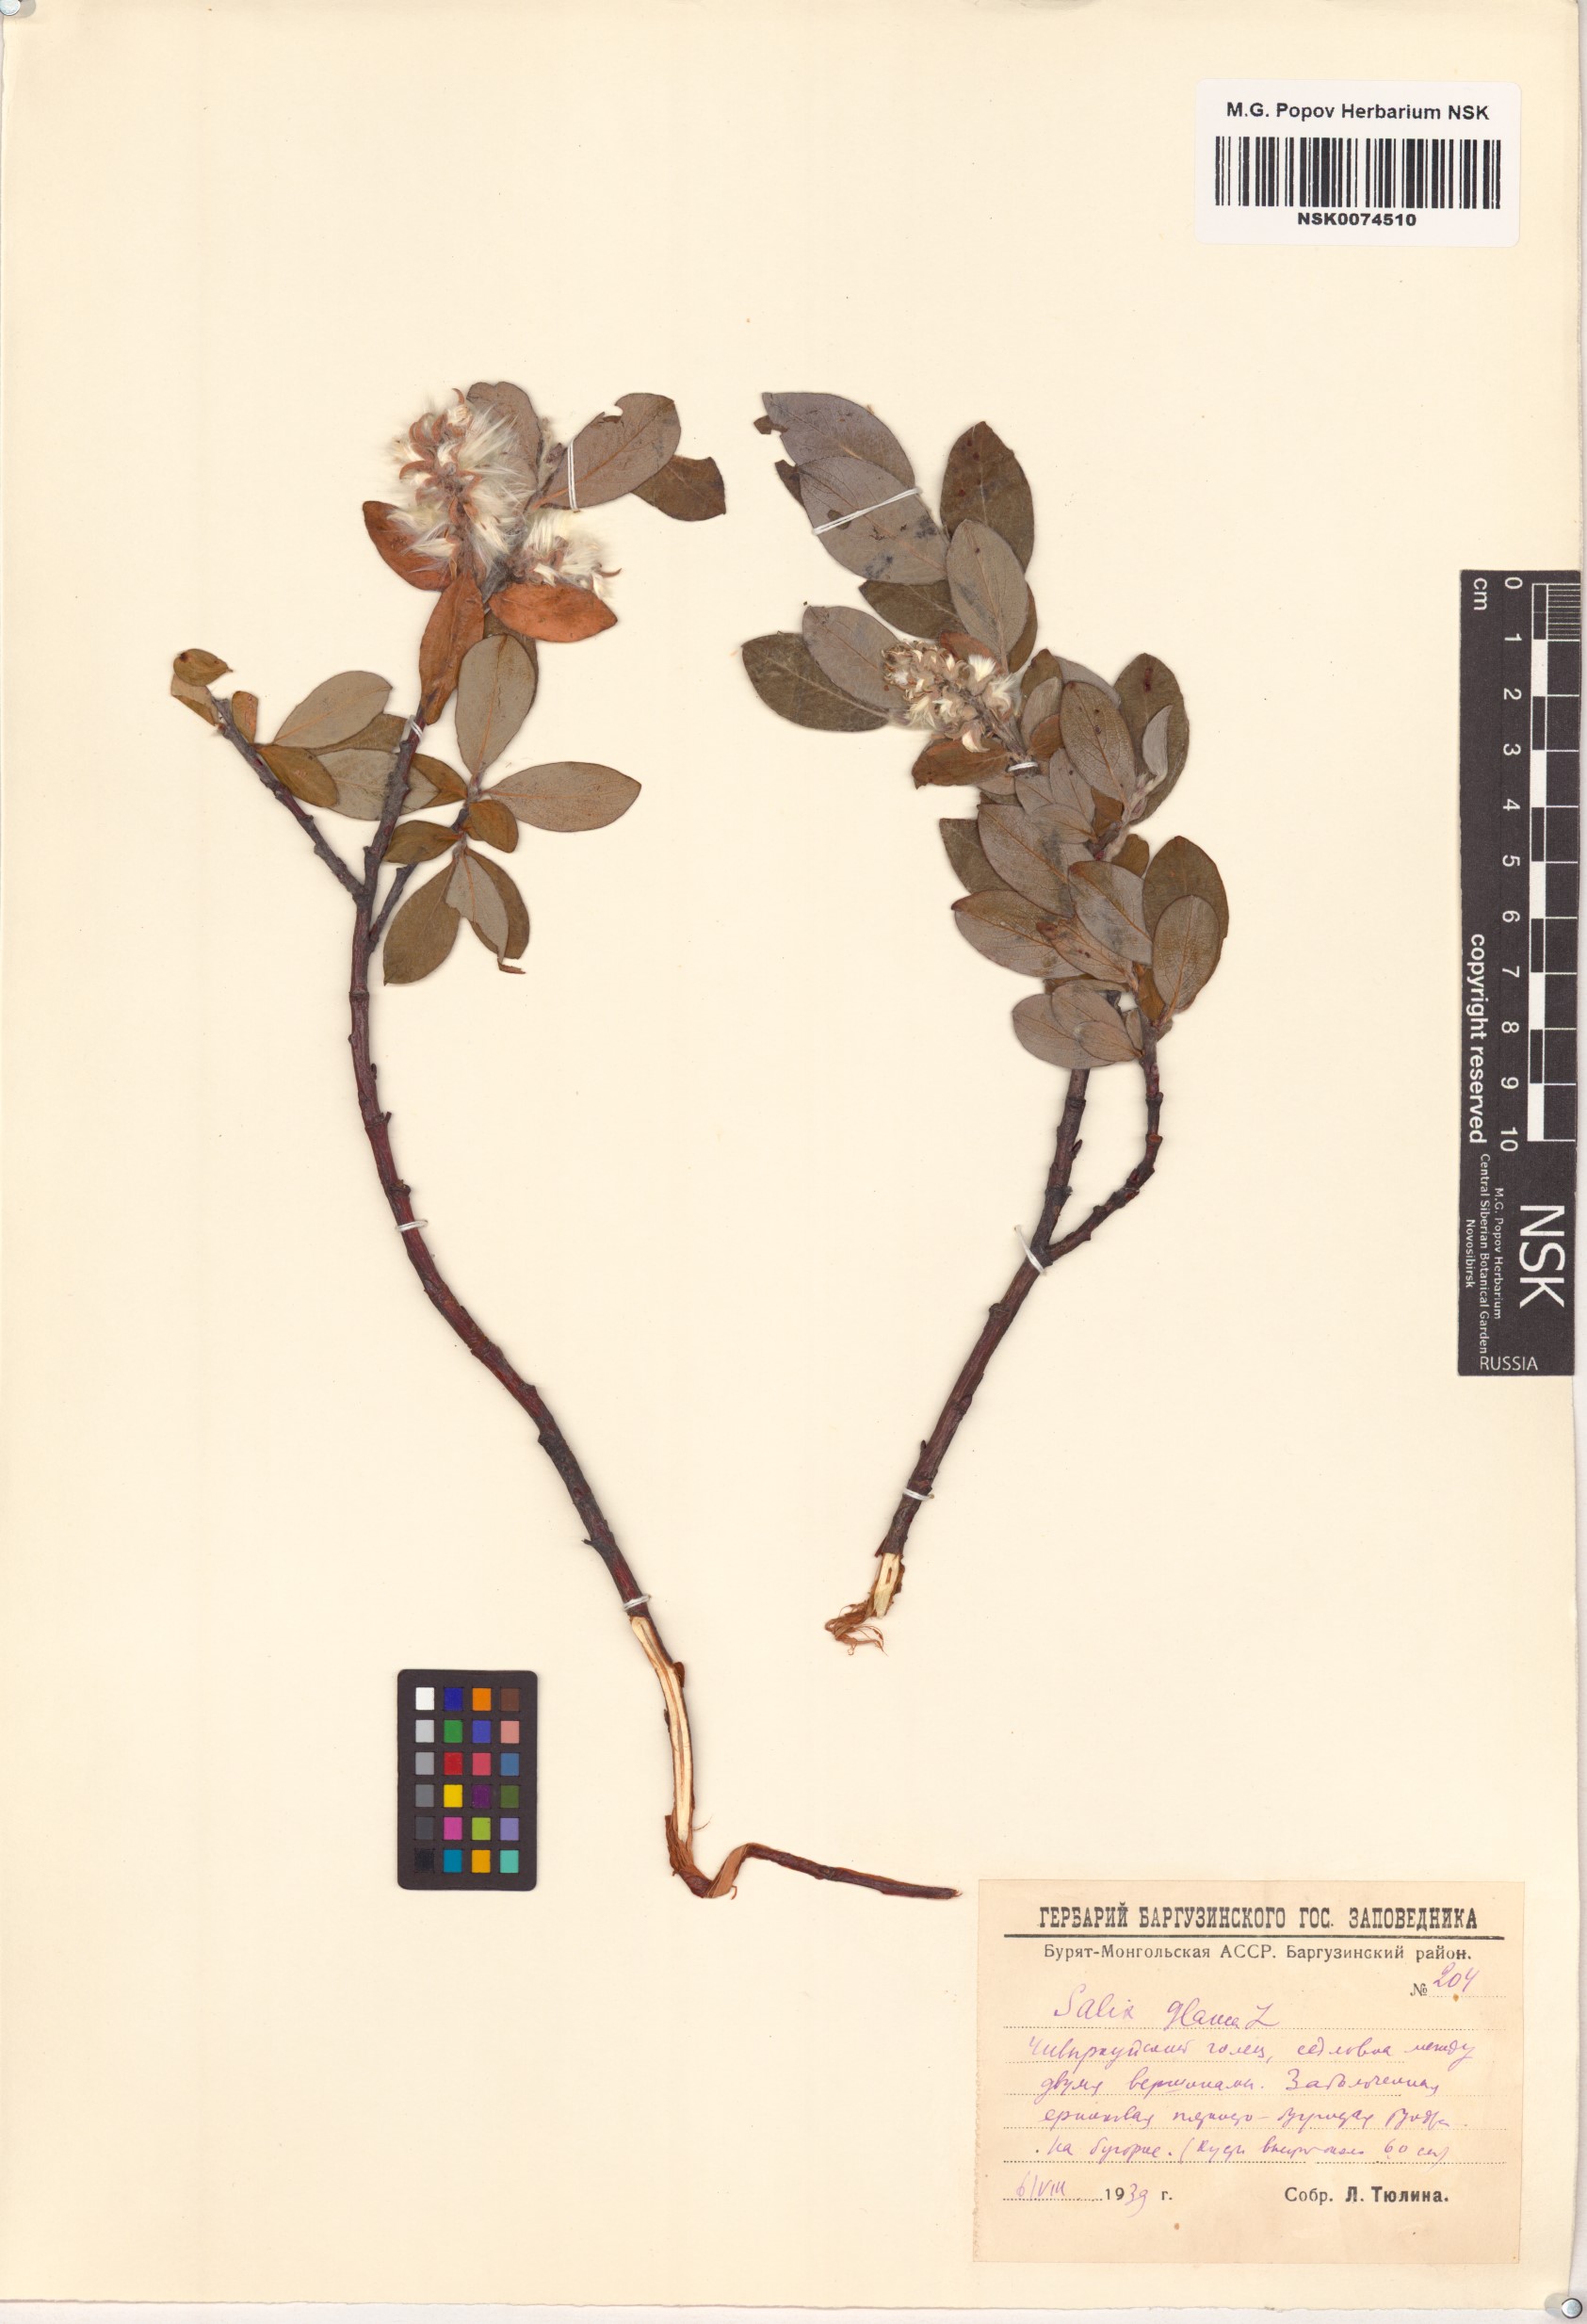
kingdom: Plantae
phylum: Tracheophyta
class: Magnoliopsida
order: Malpighiales
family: Salicaceae
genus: Salix
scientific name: Salix glauca
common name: Glaucous willow
